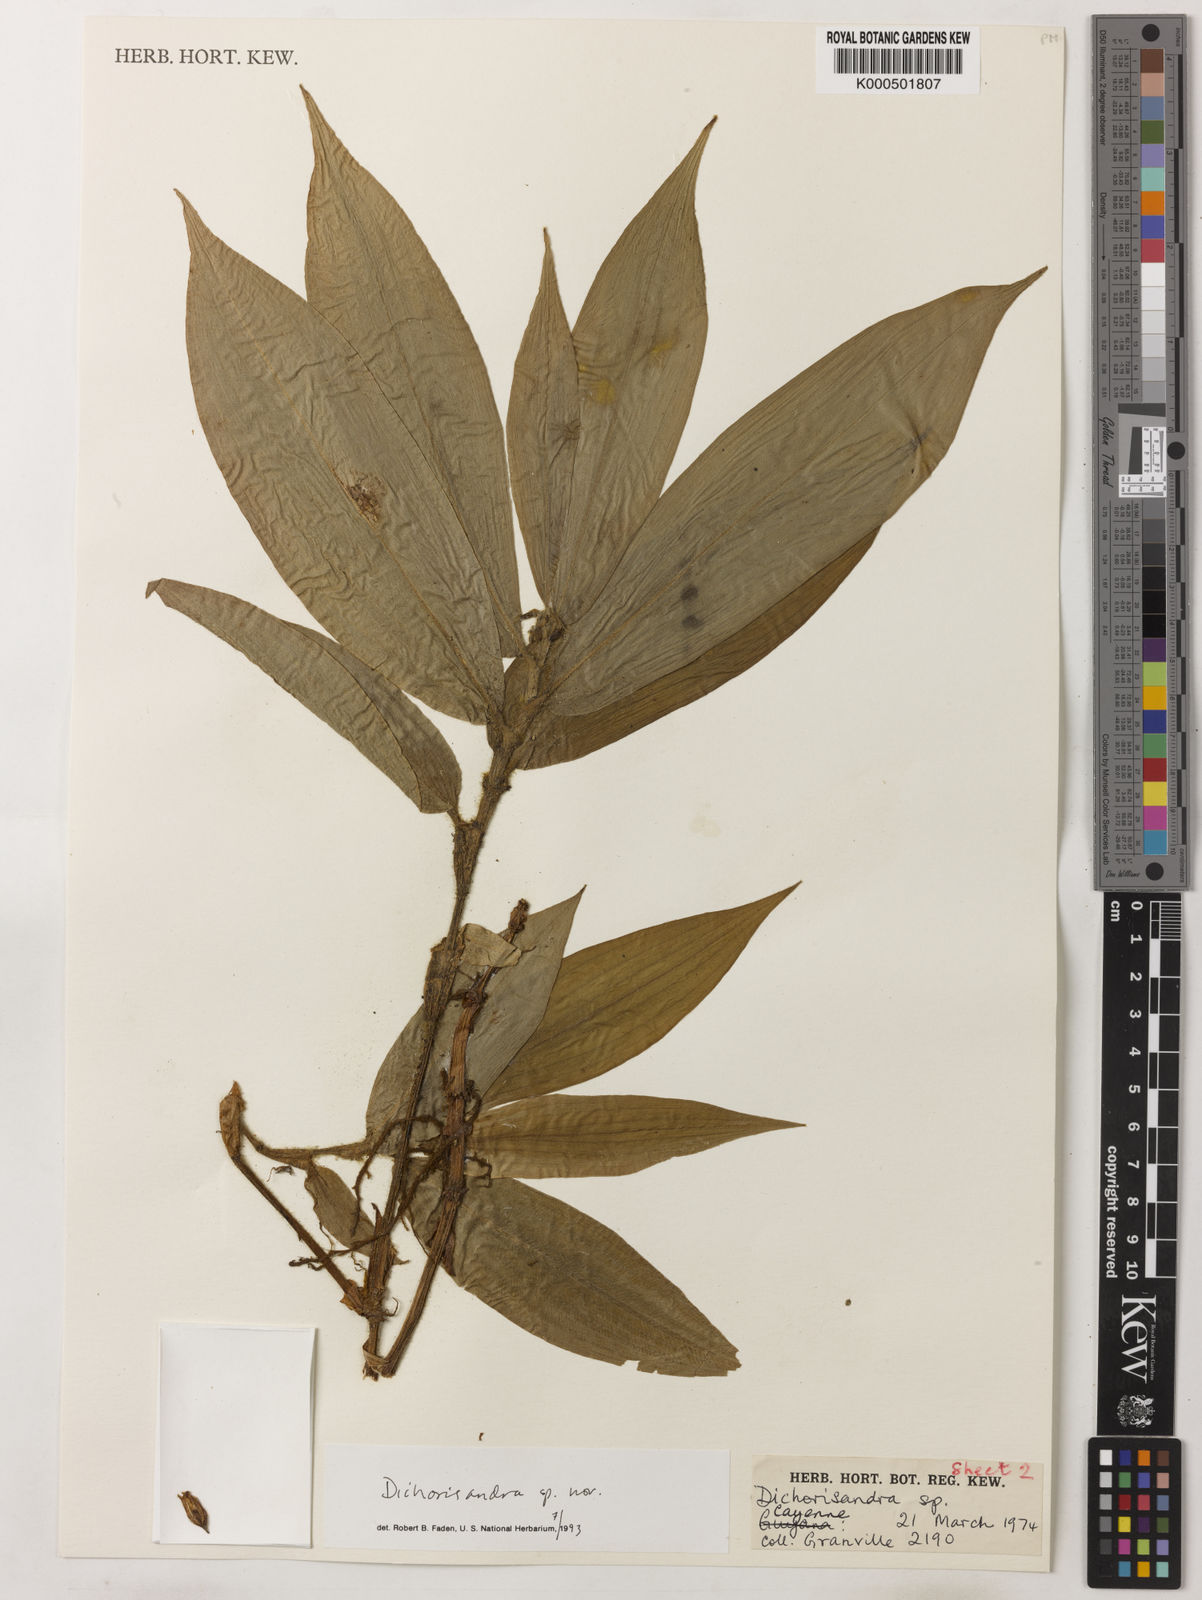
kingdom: Plantae
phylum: Tracheophyta
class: Liliopsida
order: Commelinales
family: Commelinaceae
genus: Dichorisandra
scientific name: Dichorisandra
